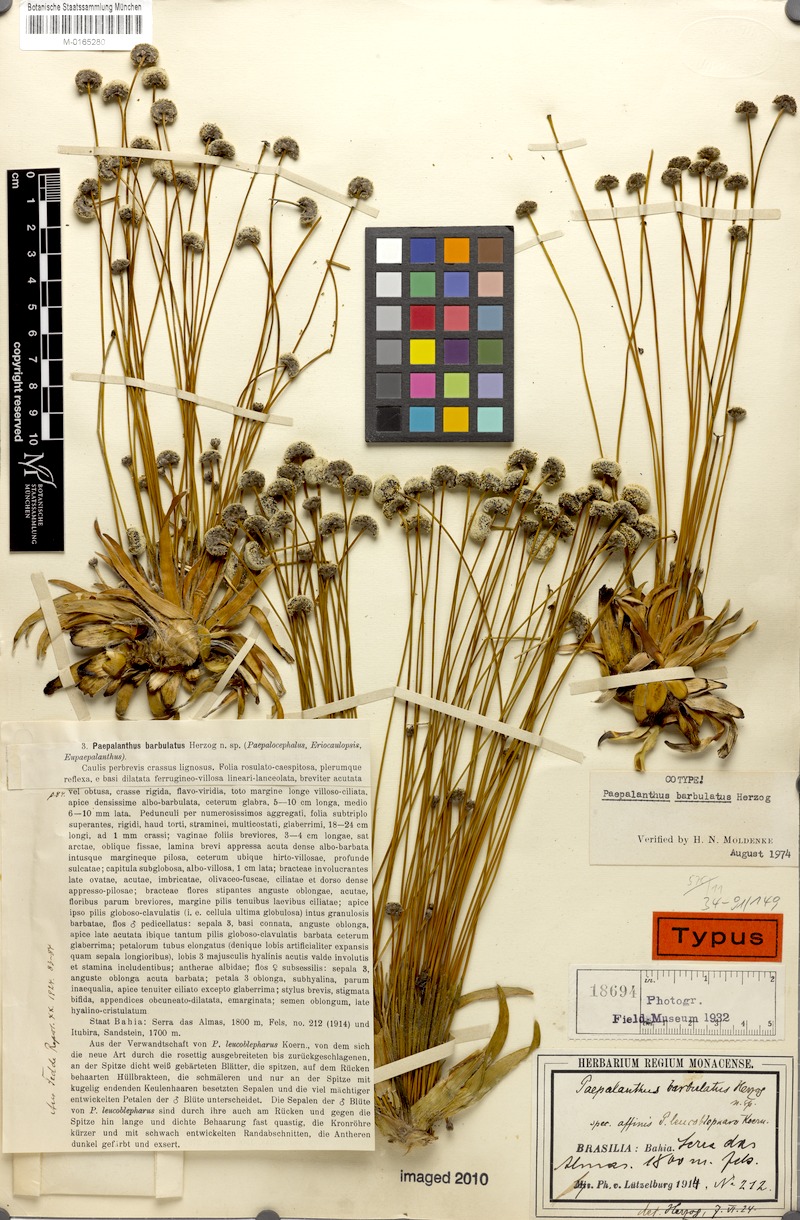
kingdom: Plantae
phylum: Tracheophyta
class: Liliopsida
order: Poales
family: Eriocaulaceae
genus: Paepalanthus
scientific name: Paepalanthus barbulatus
